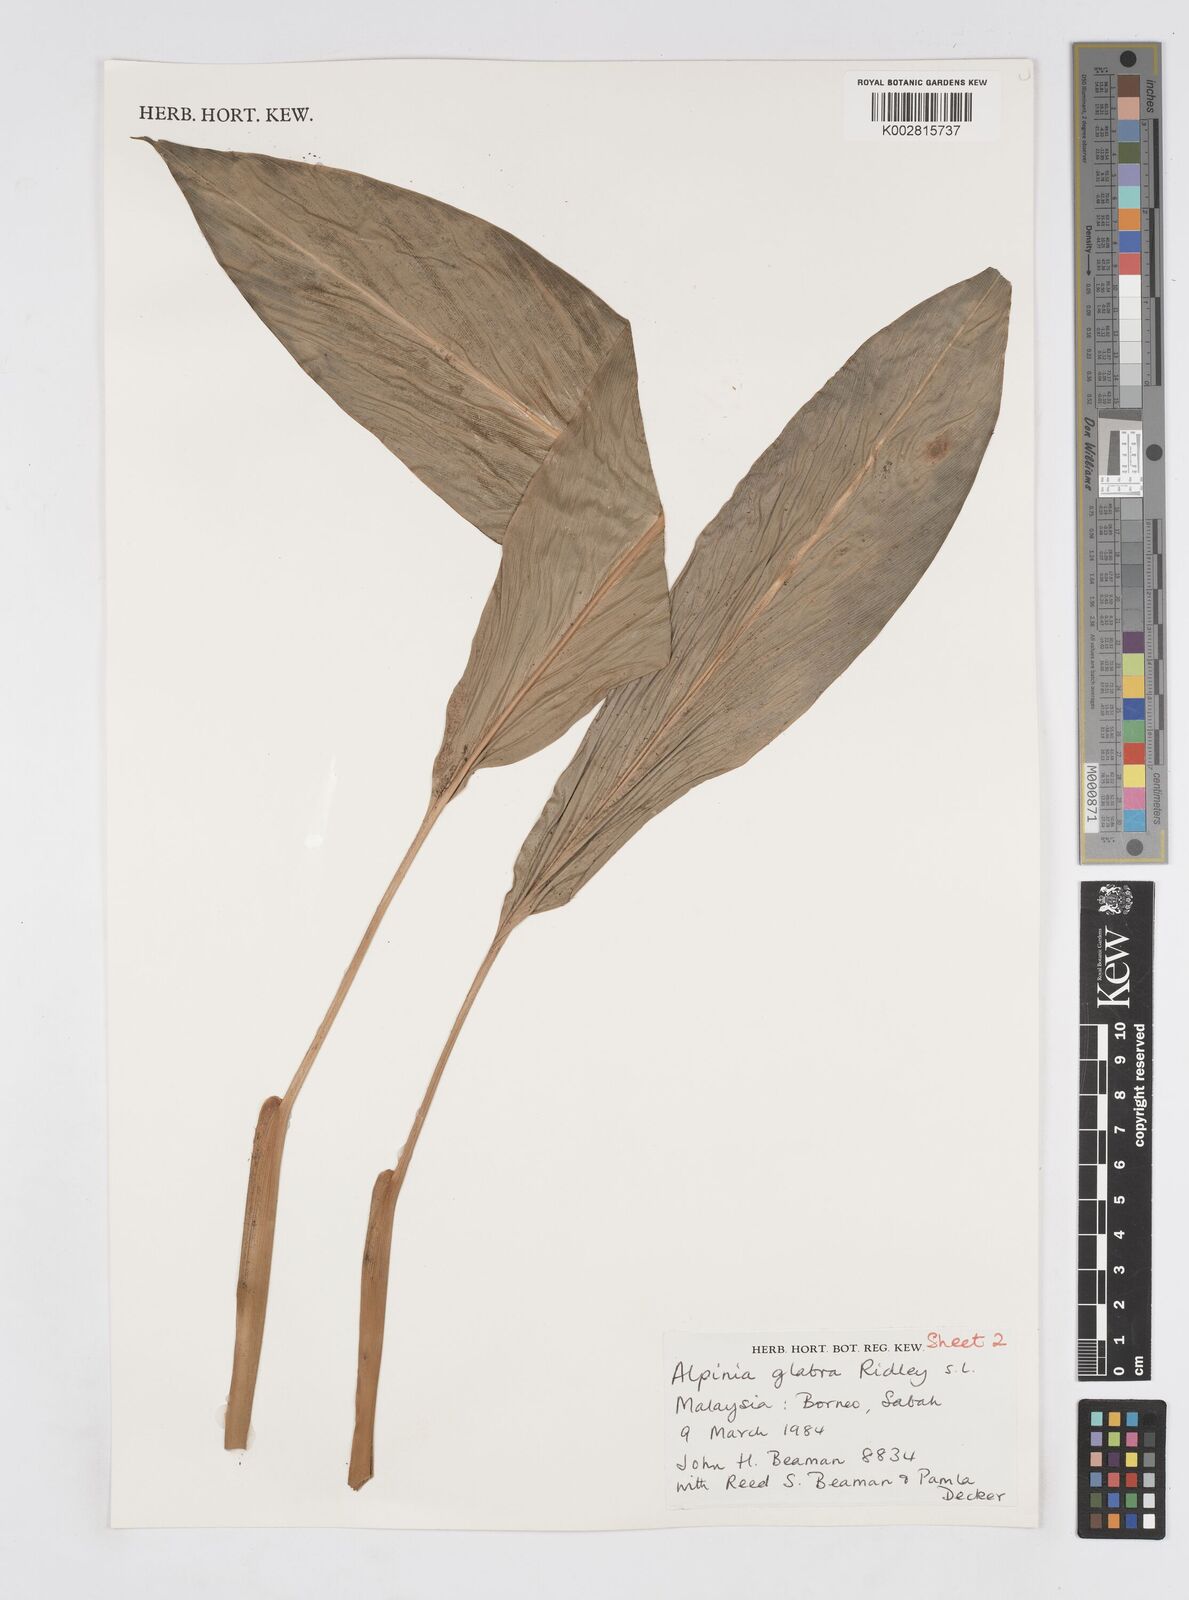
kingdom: Plantae
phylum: Tracheophyta
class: Liliopsida
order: Zingiberales
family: Zingiberaceae
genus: Alpinia
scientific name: Alpinia glabra
